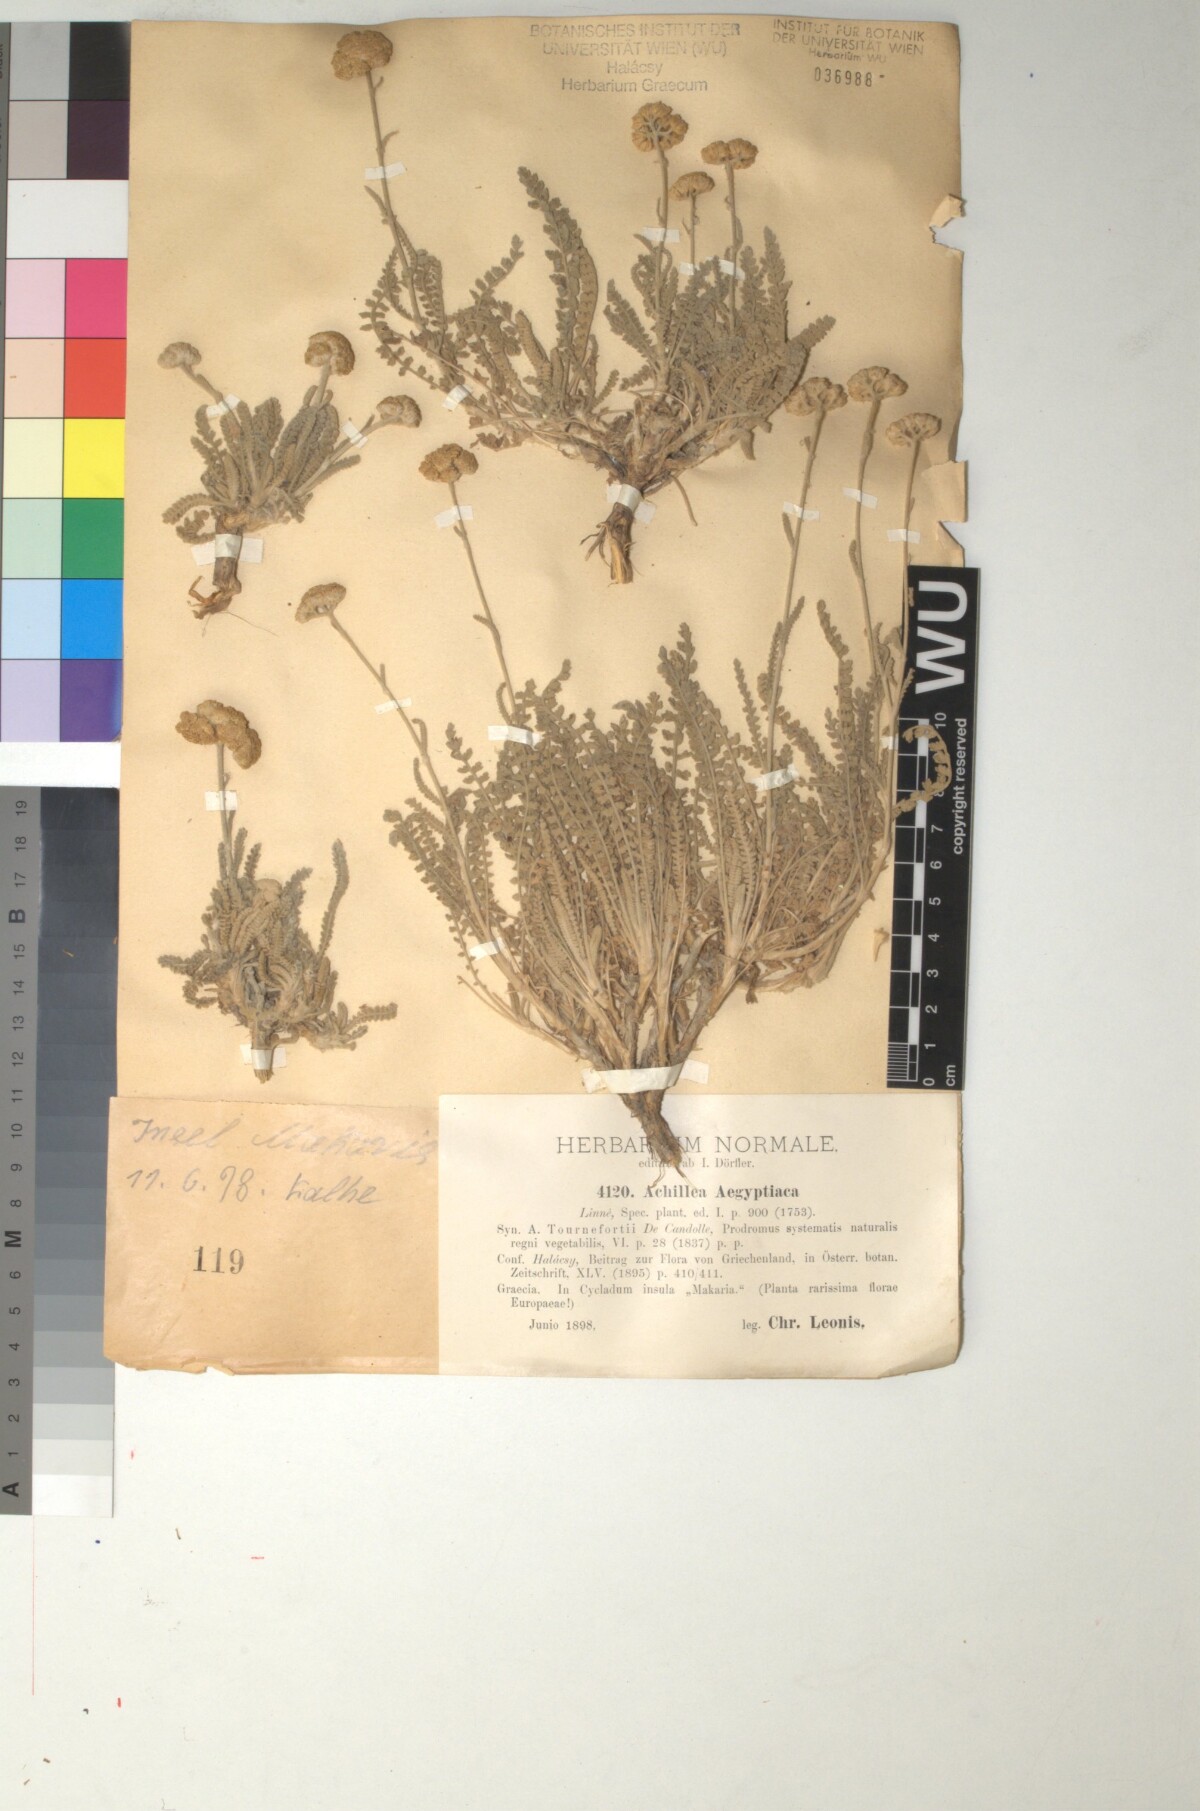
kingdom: Plantae
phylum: Tracheophyta
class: Magnoliopsida
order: Asterales
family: Asteraceae
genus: Achillea
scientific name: Achillea aegyptiaca
